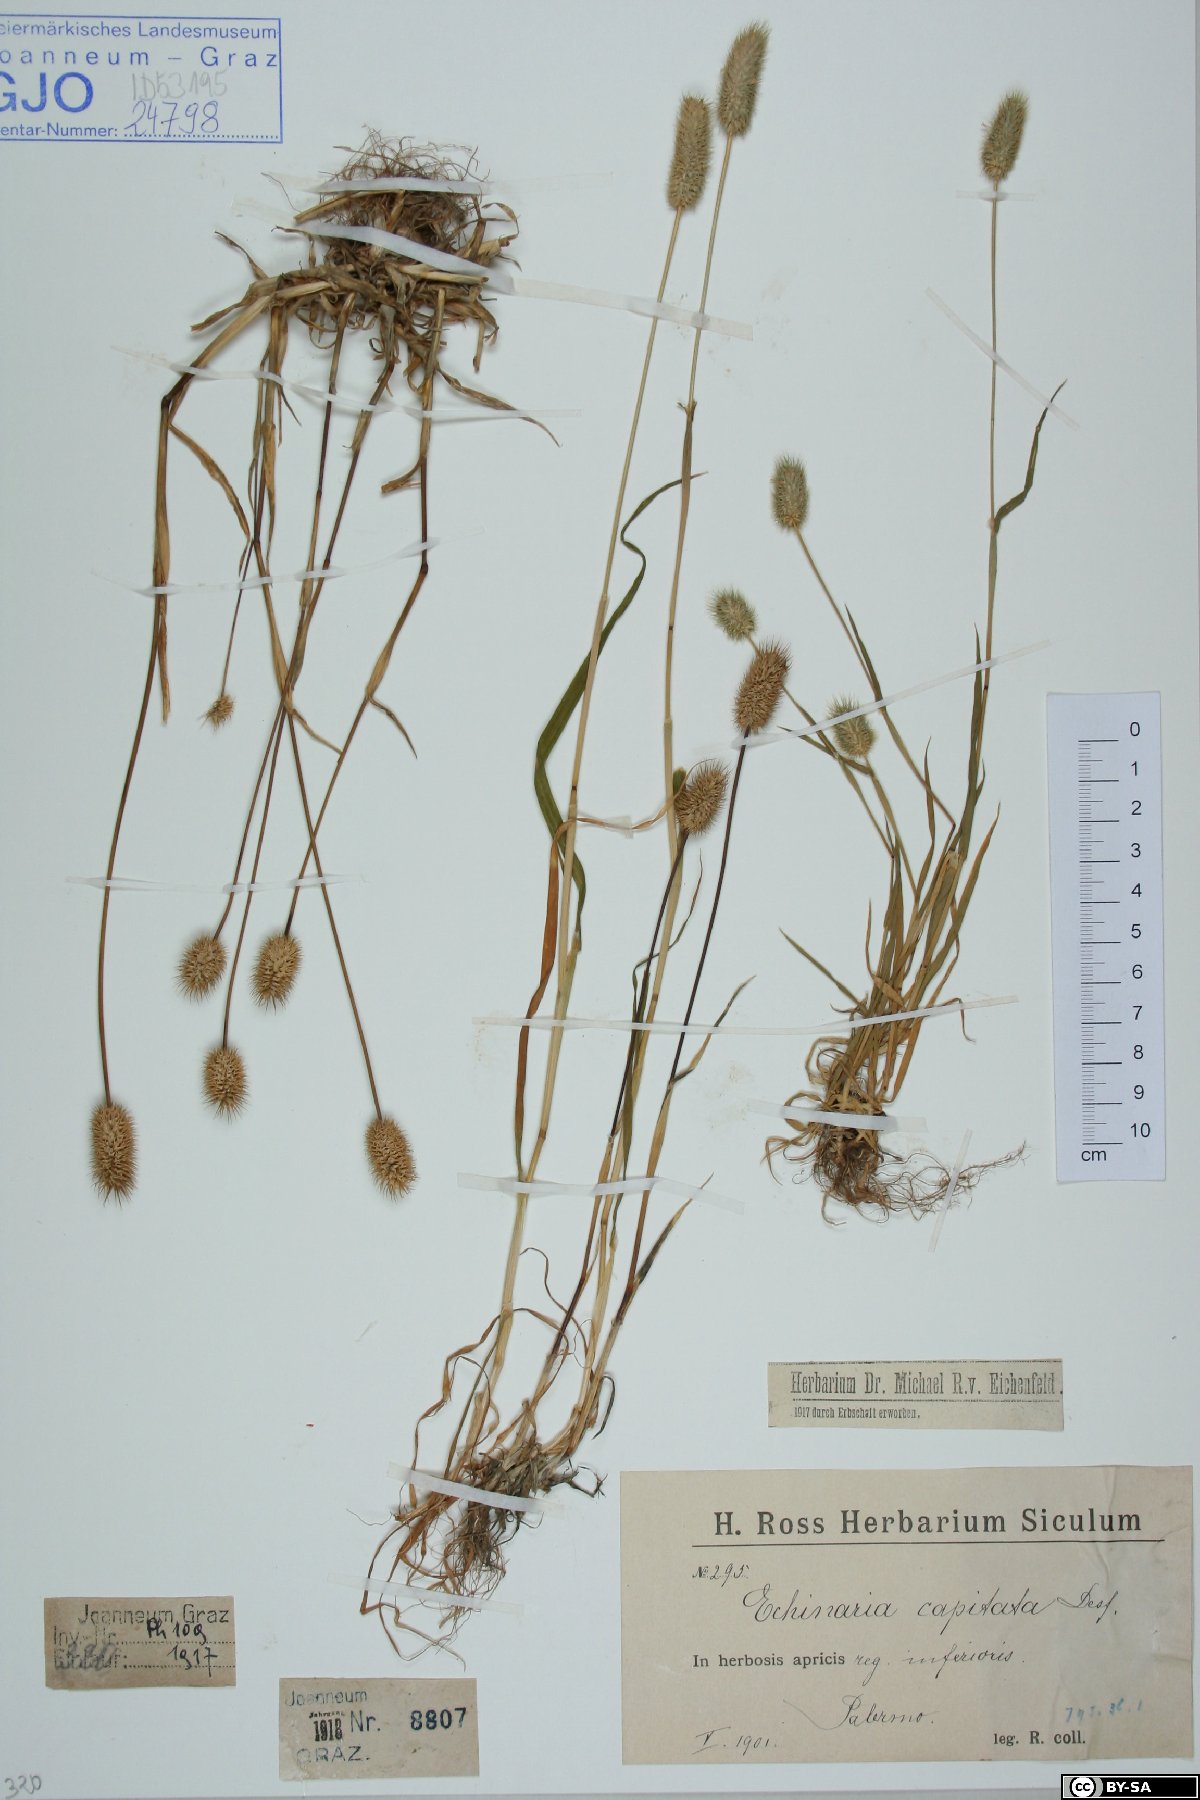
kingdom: Plantae
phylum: Tracheophyta
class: Liliopsida
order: Poales
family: Poaceae
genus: Echinaria
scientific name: Echinaria capitata
